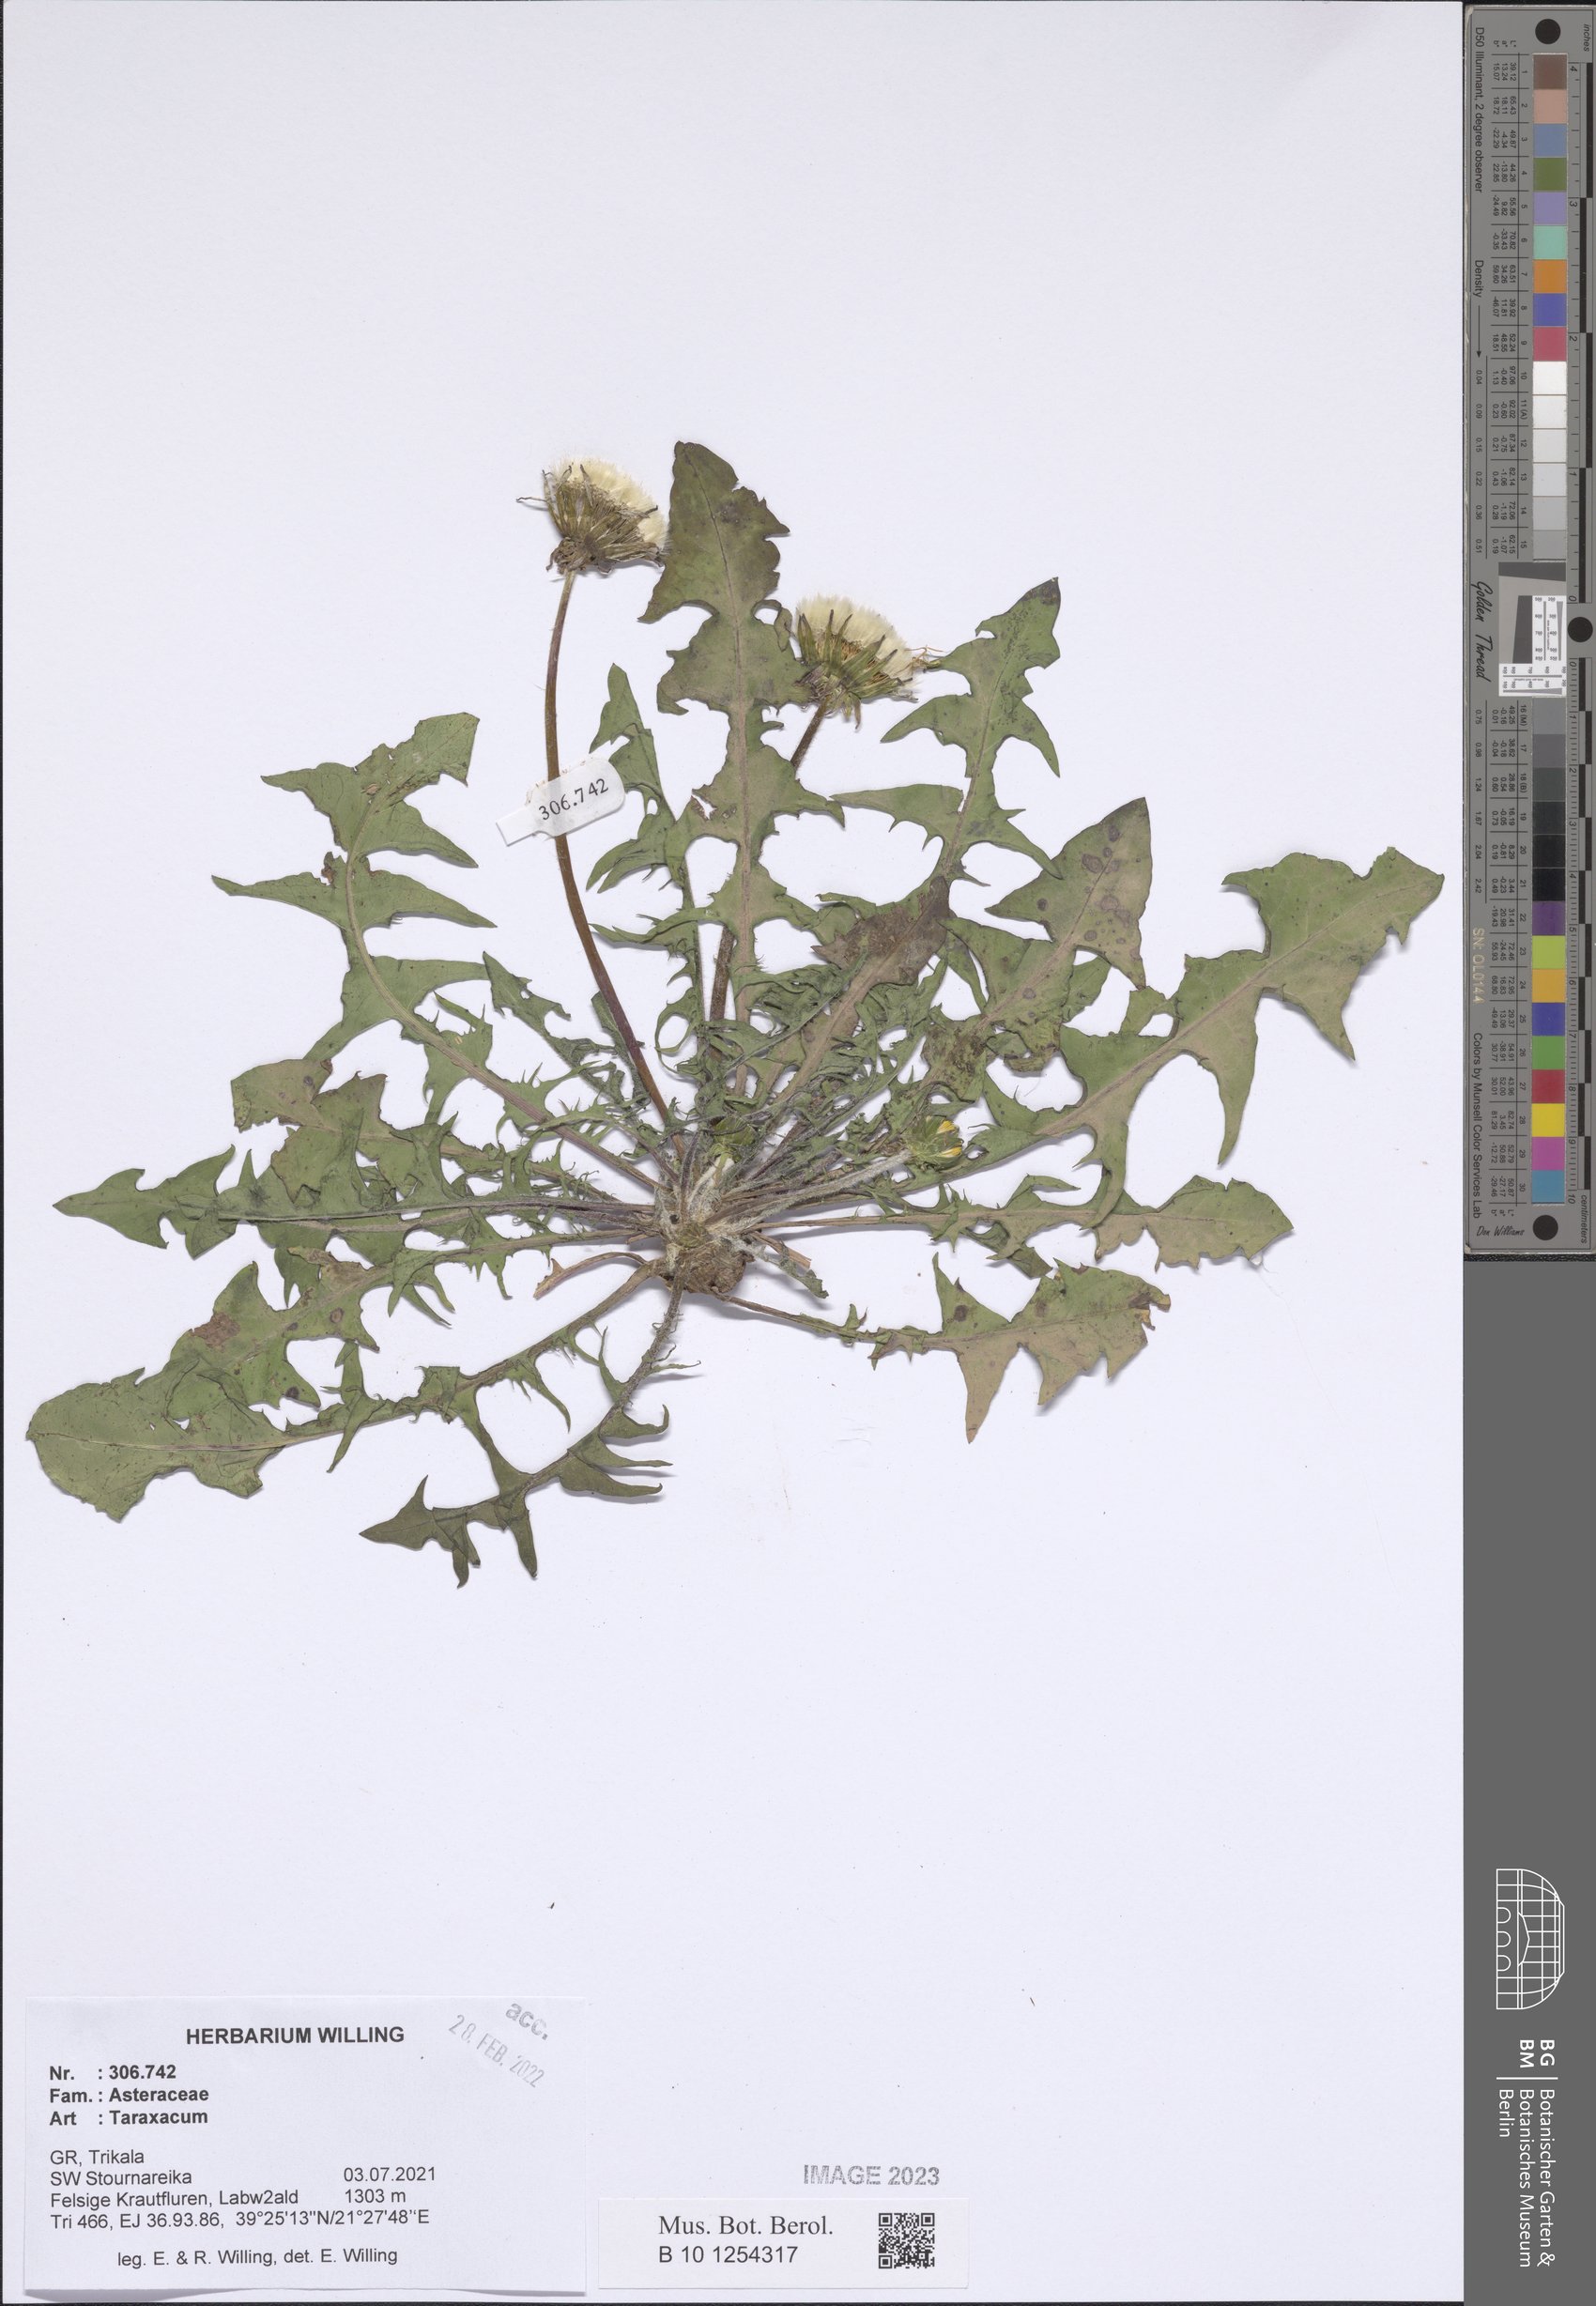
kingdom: Plantae
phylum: Tracheophyta
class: Magnoliopsida
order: Asterales
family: Asteraceae
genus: Taraxacum
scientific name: Taraxacum
